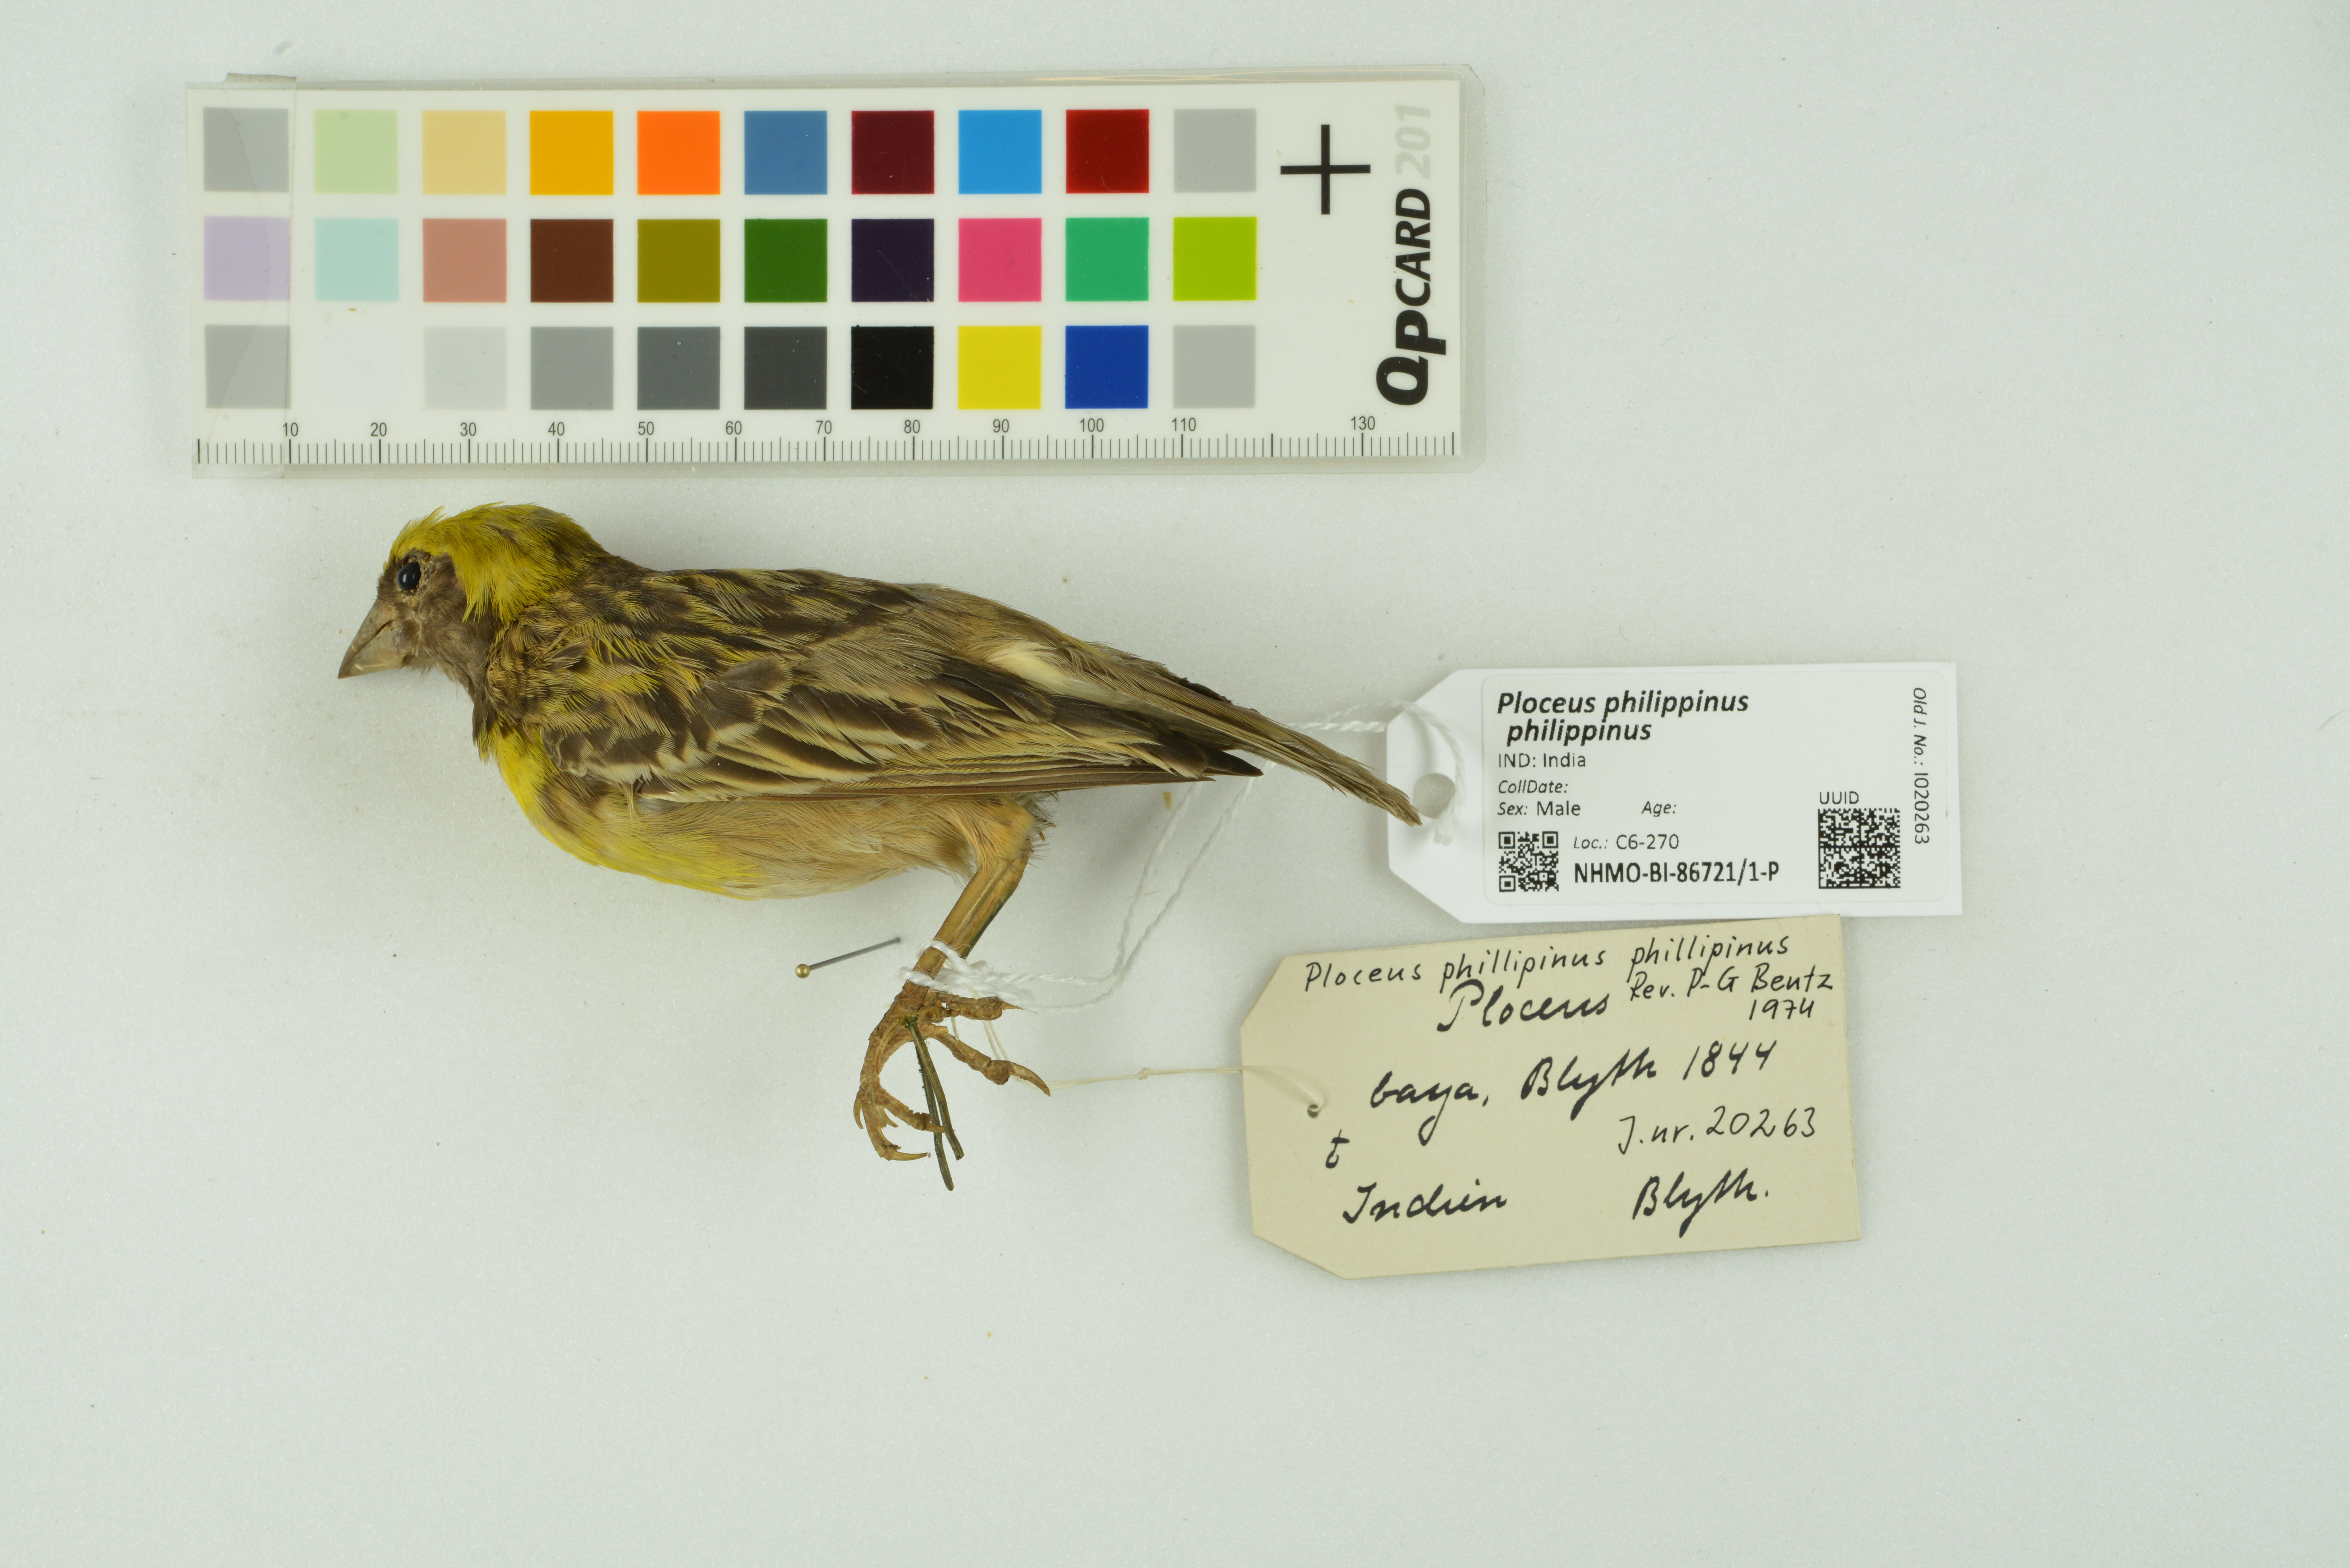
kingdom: Animalia
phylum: Chordata
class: Aves
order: Passeriformes
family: Ploceidae
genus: Ploceus
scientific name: Ploceus philippinus
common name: Baya weaver
